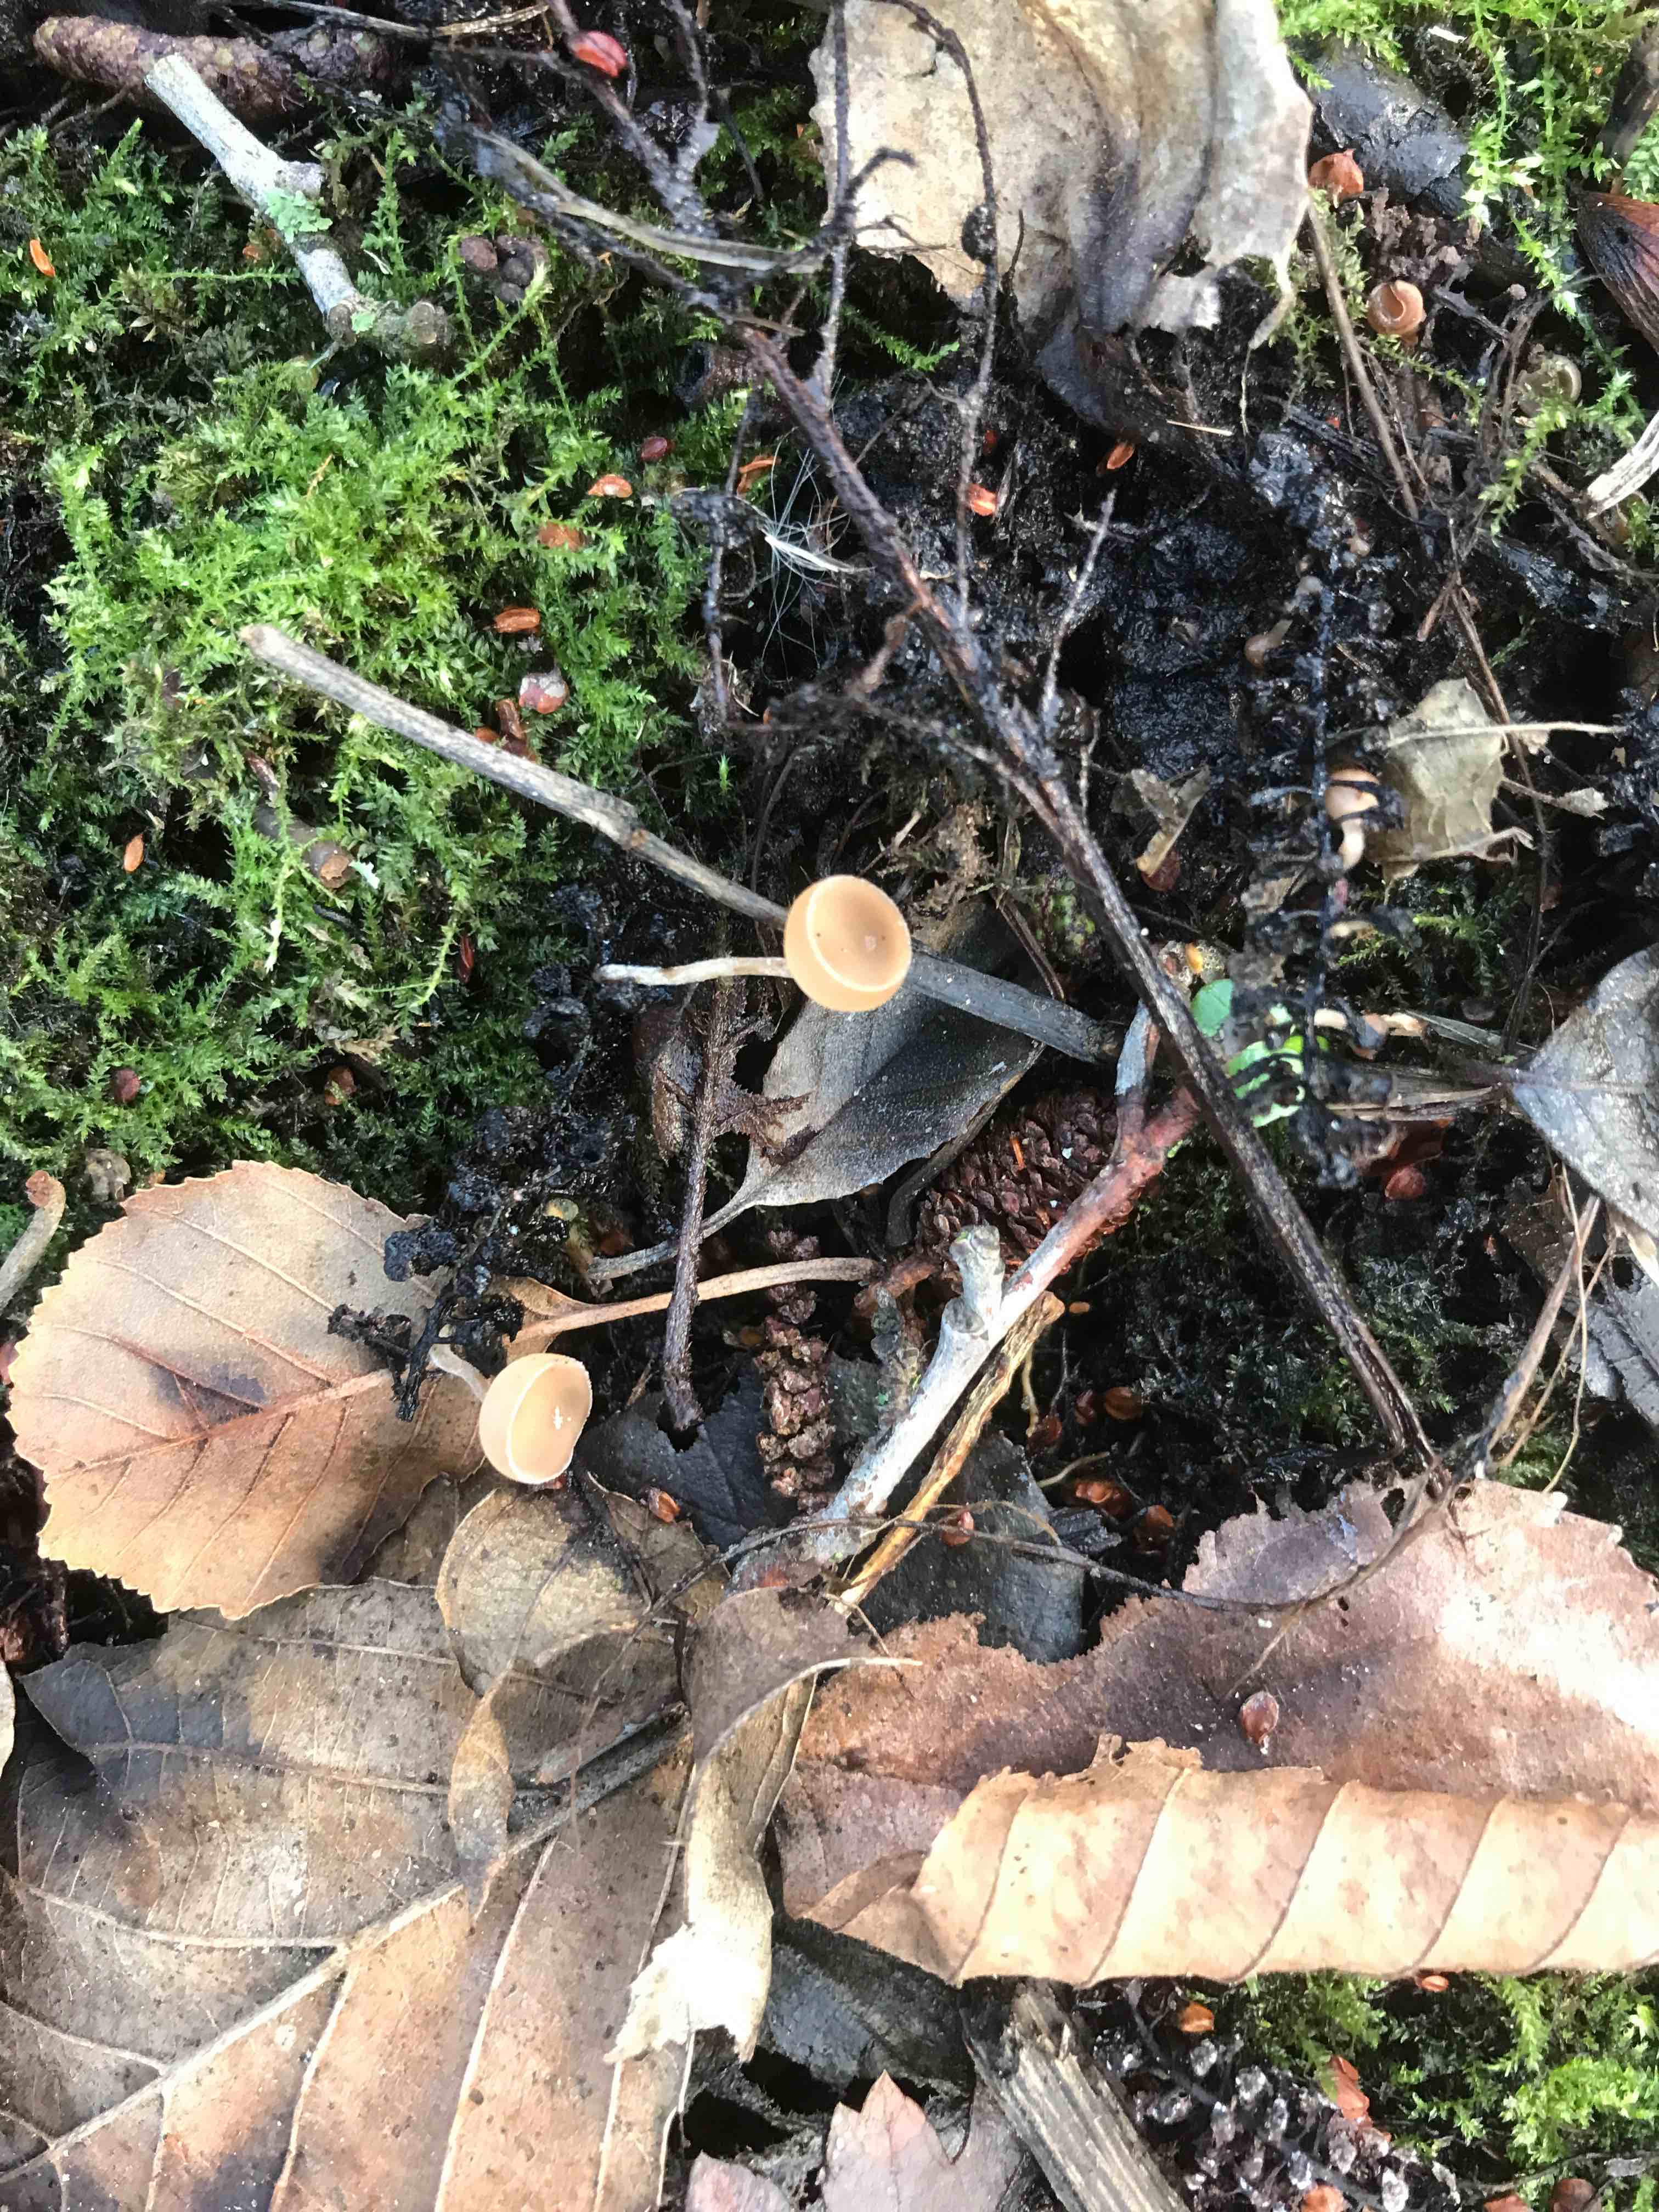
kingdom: Fungi
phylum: Ascomycota
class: Leotiomycetes
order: Helotiales
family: Sclerotiniaceae
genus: Ciboria
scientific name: Ciboria amentacea
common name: ellerakle-knoldskive
